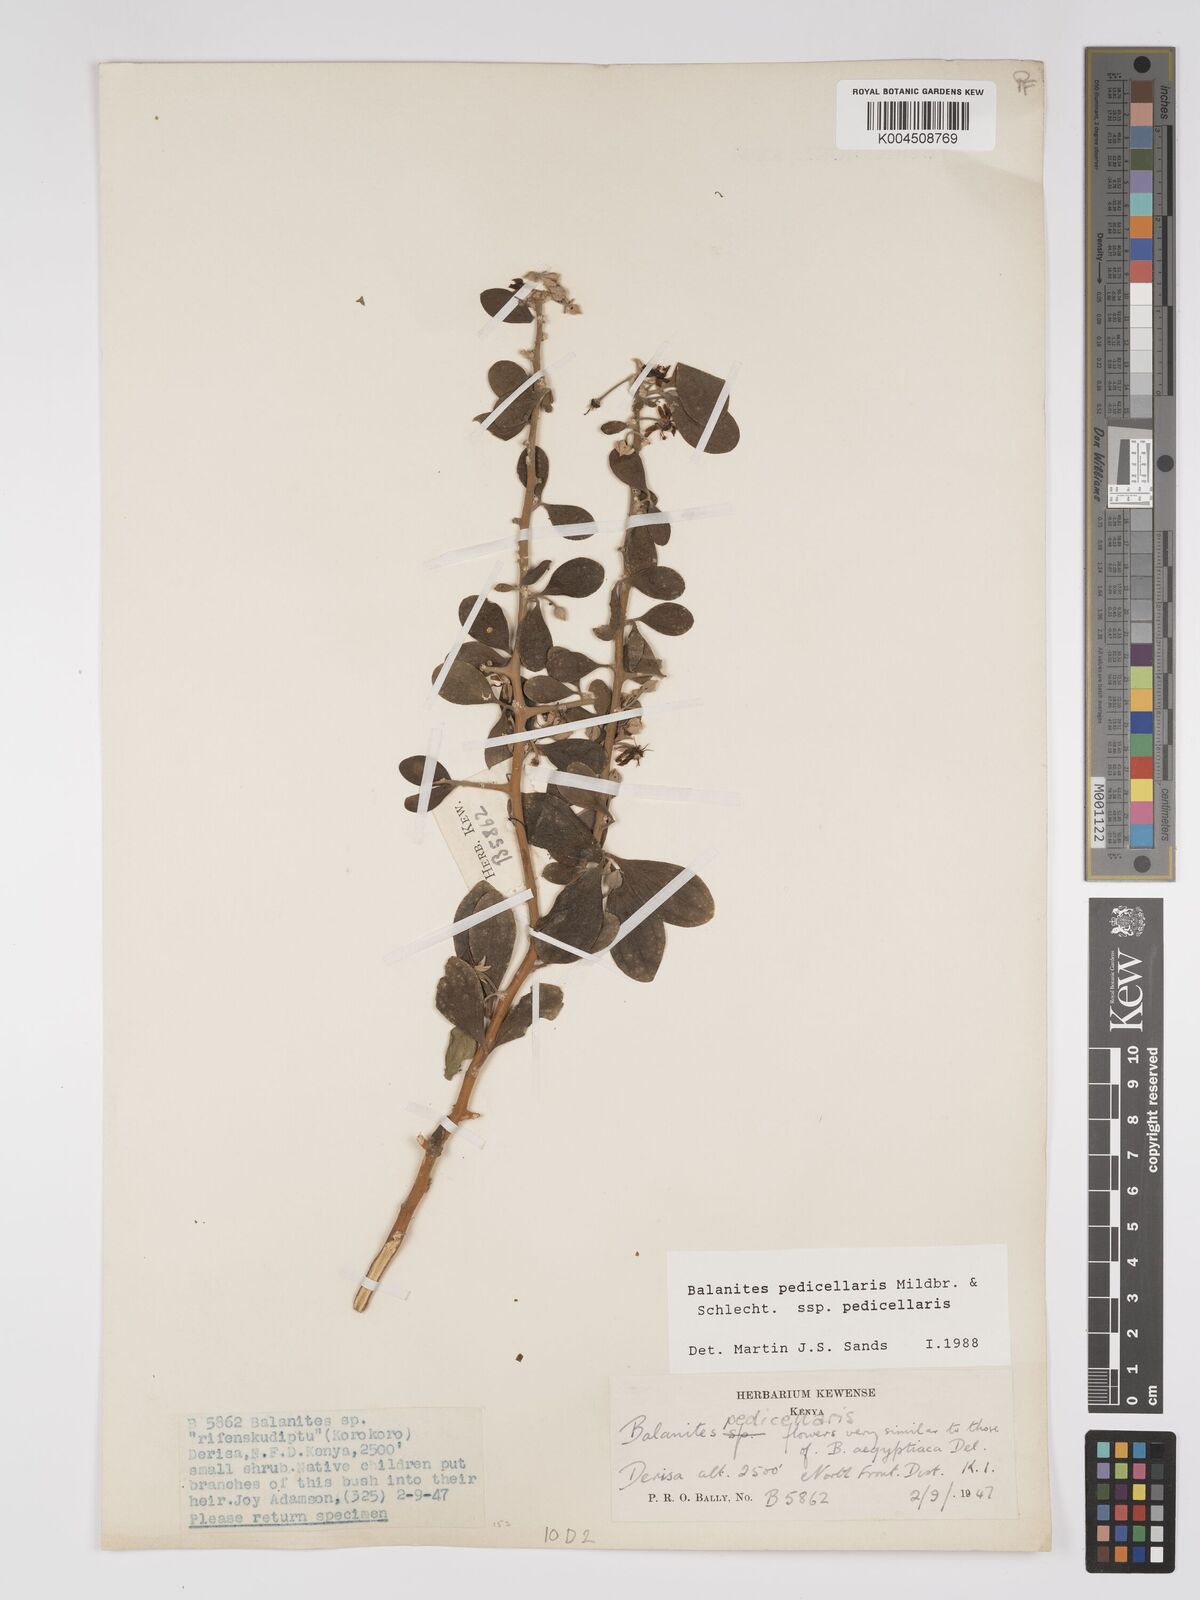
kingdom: Plantae
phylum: Tracheophyta
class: Magnoliopsida
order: Zygophyllales
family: Zygophyllaceae
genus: Balanites
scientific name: Balanites pedicellaris
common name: Small green-thorn
